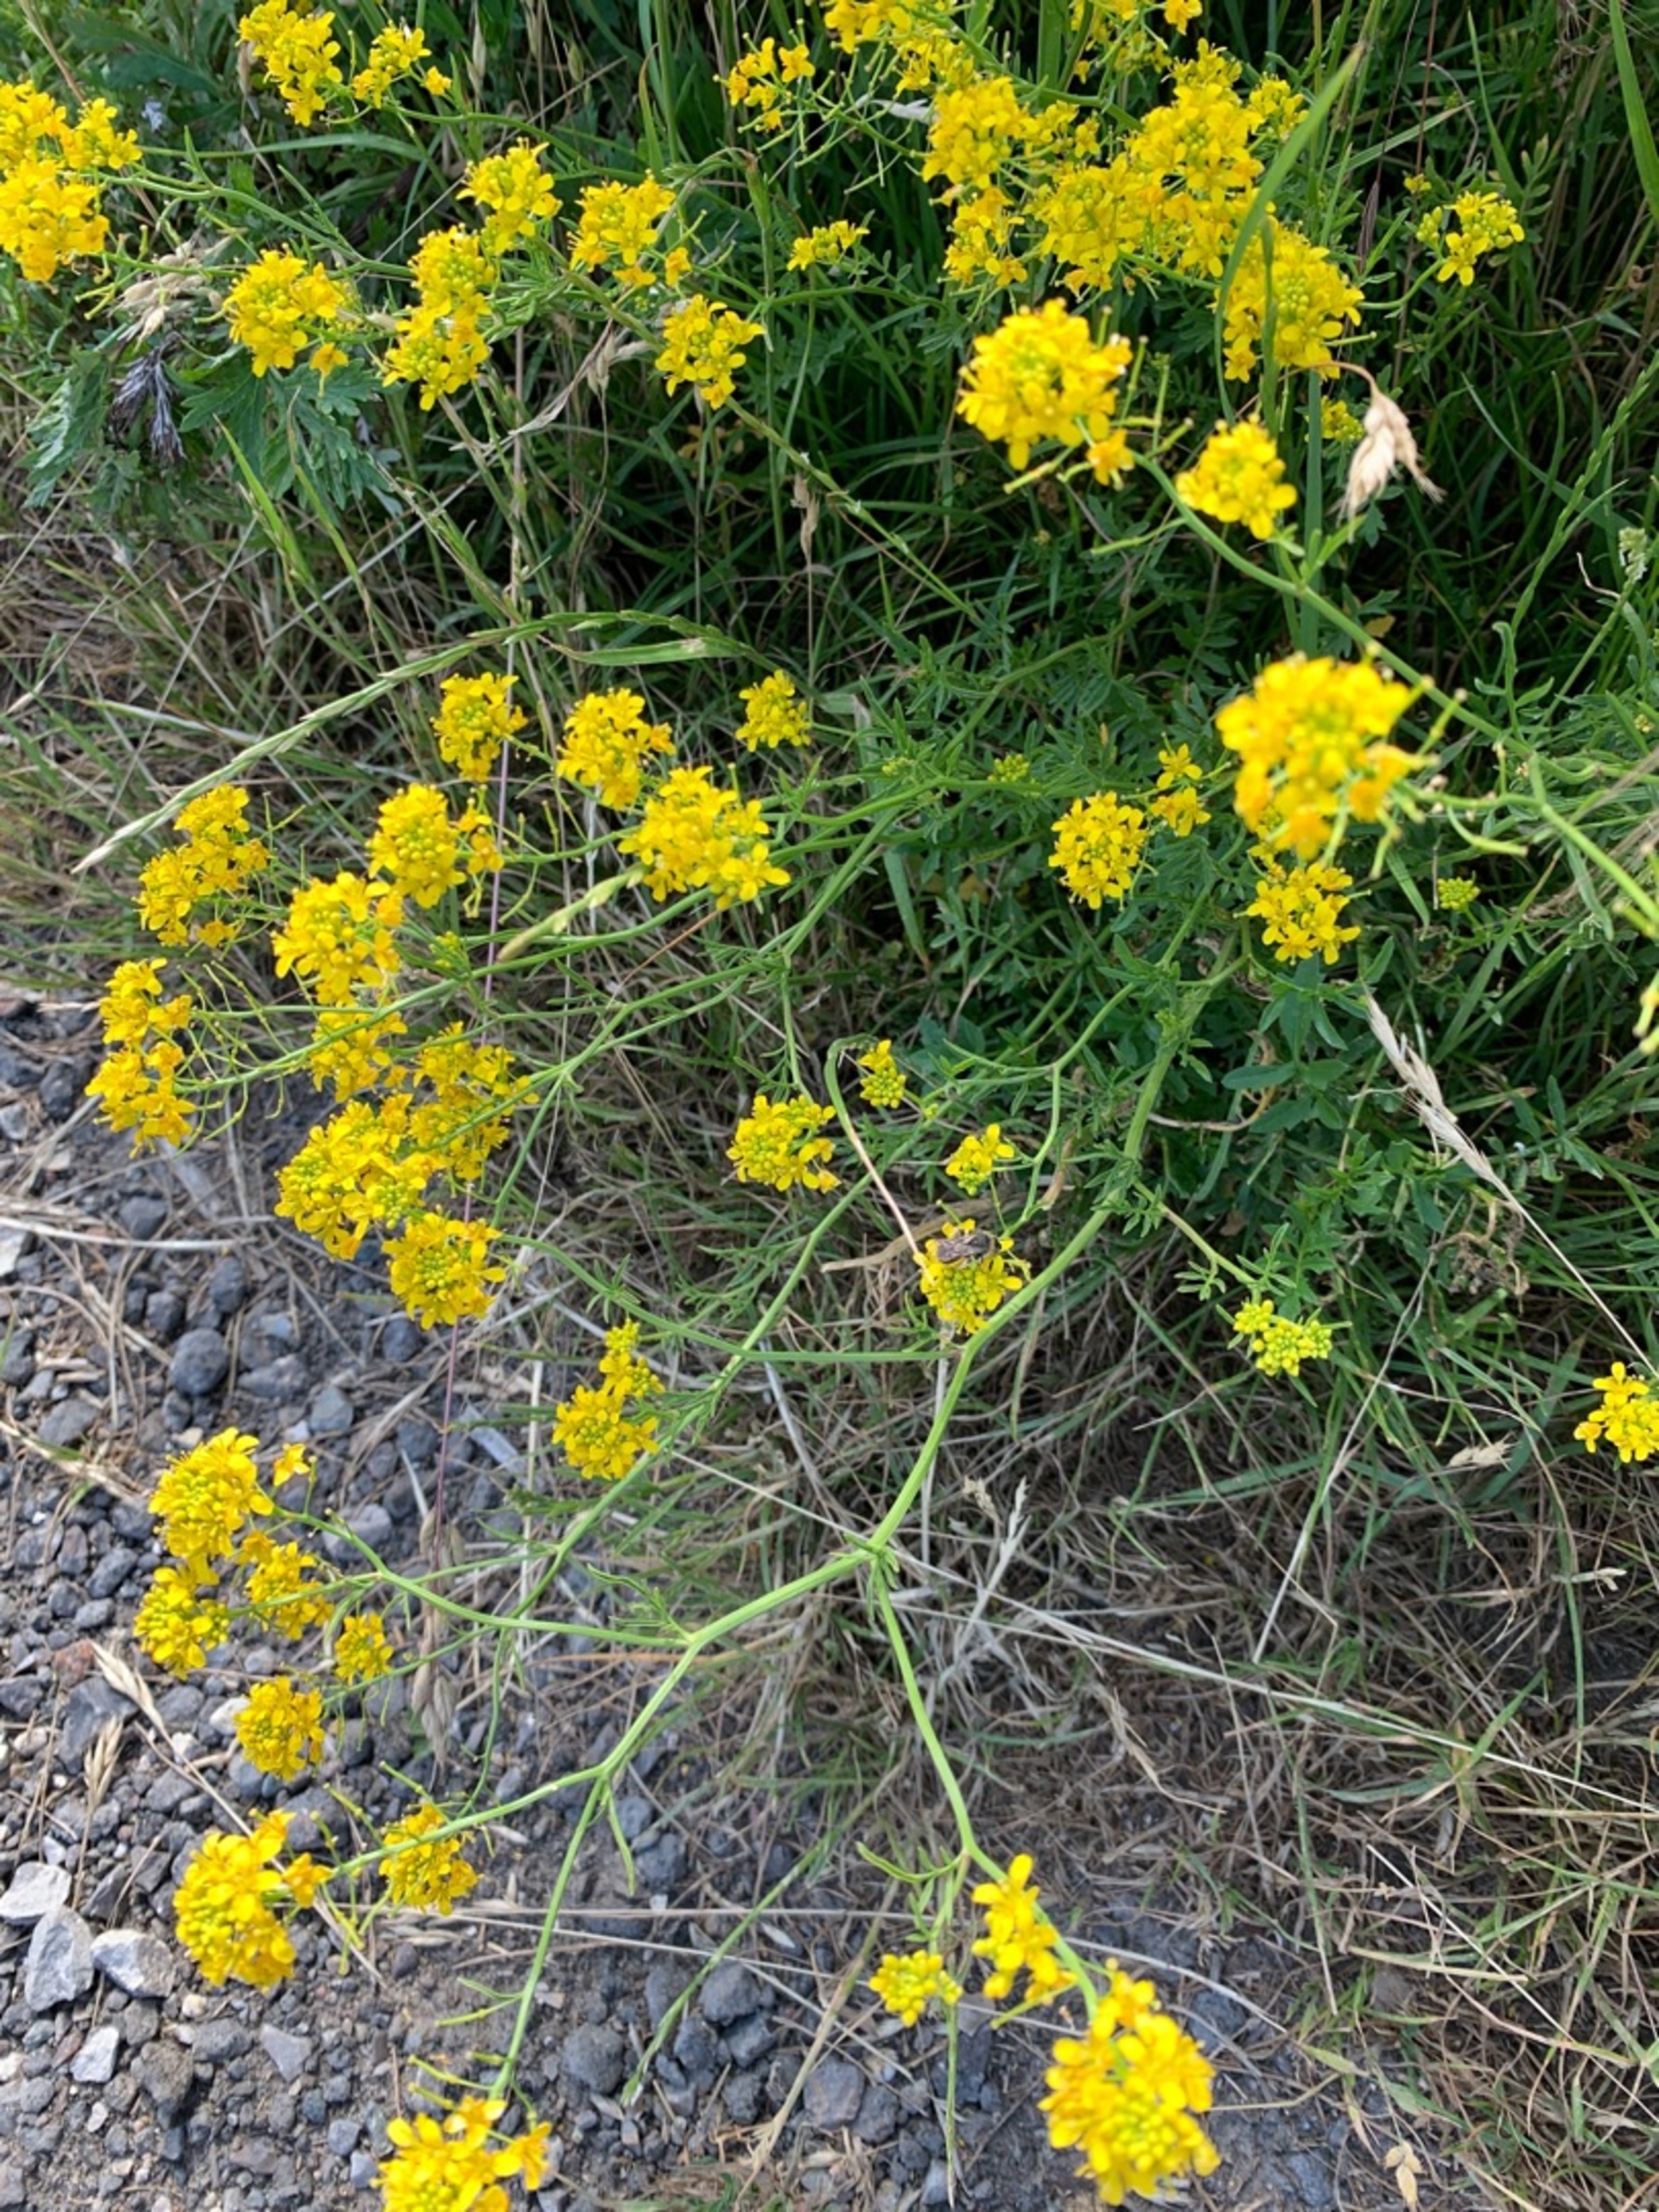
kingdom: Plantae
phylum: Tracheophyta
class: Magnoliopsida
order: Brassicales
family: Brassicaceae
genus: Rorippa
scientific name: Rorippa sylvestris
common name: Vej-guldkarse
